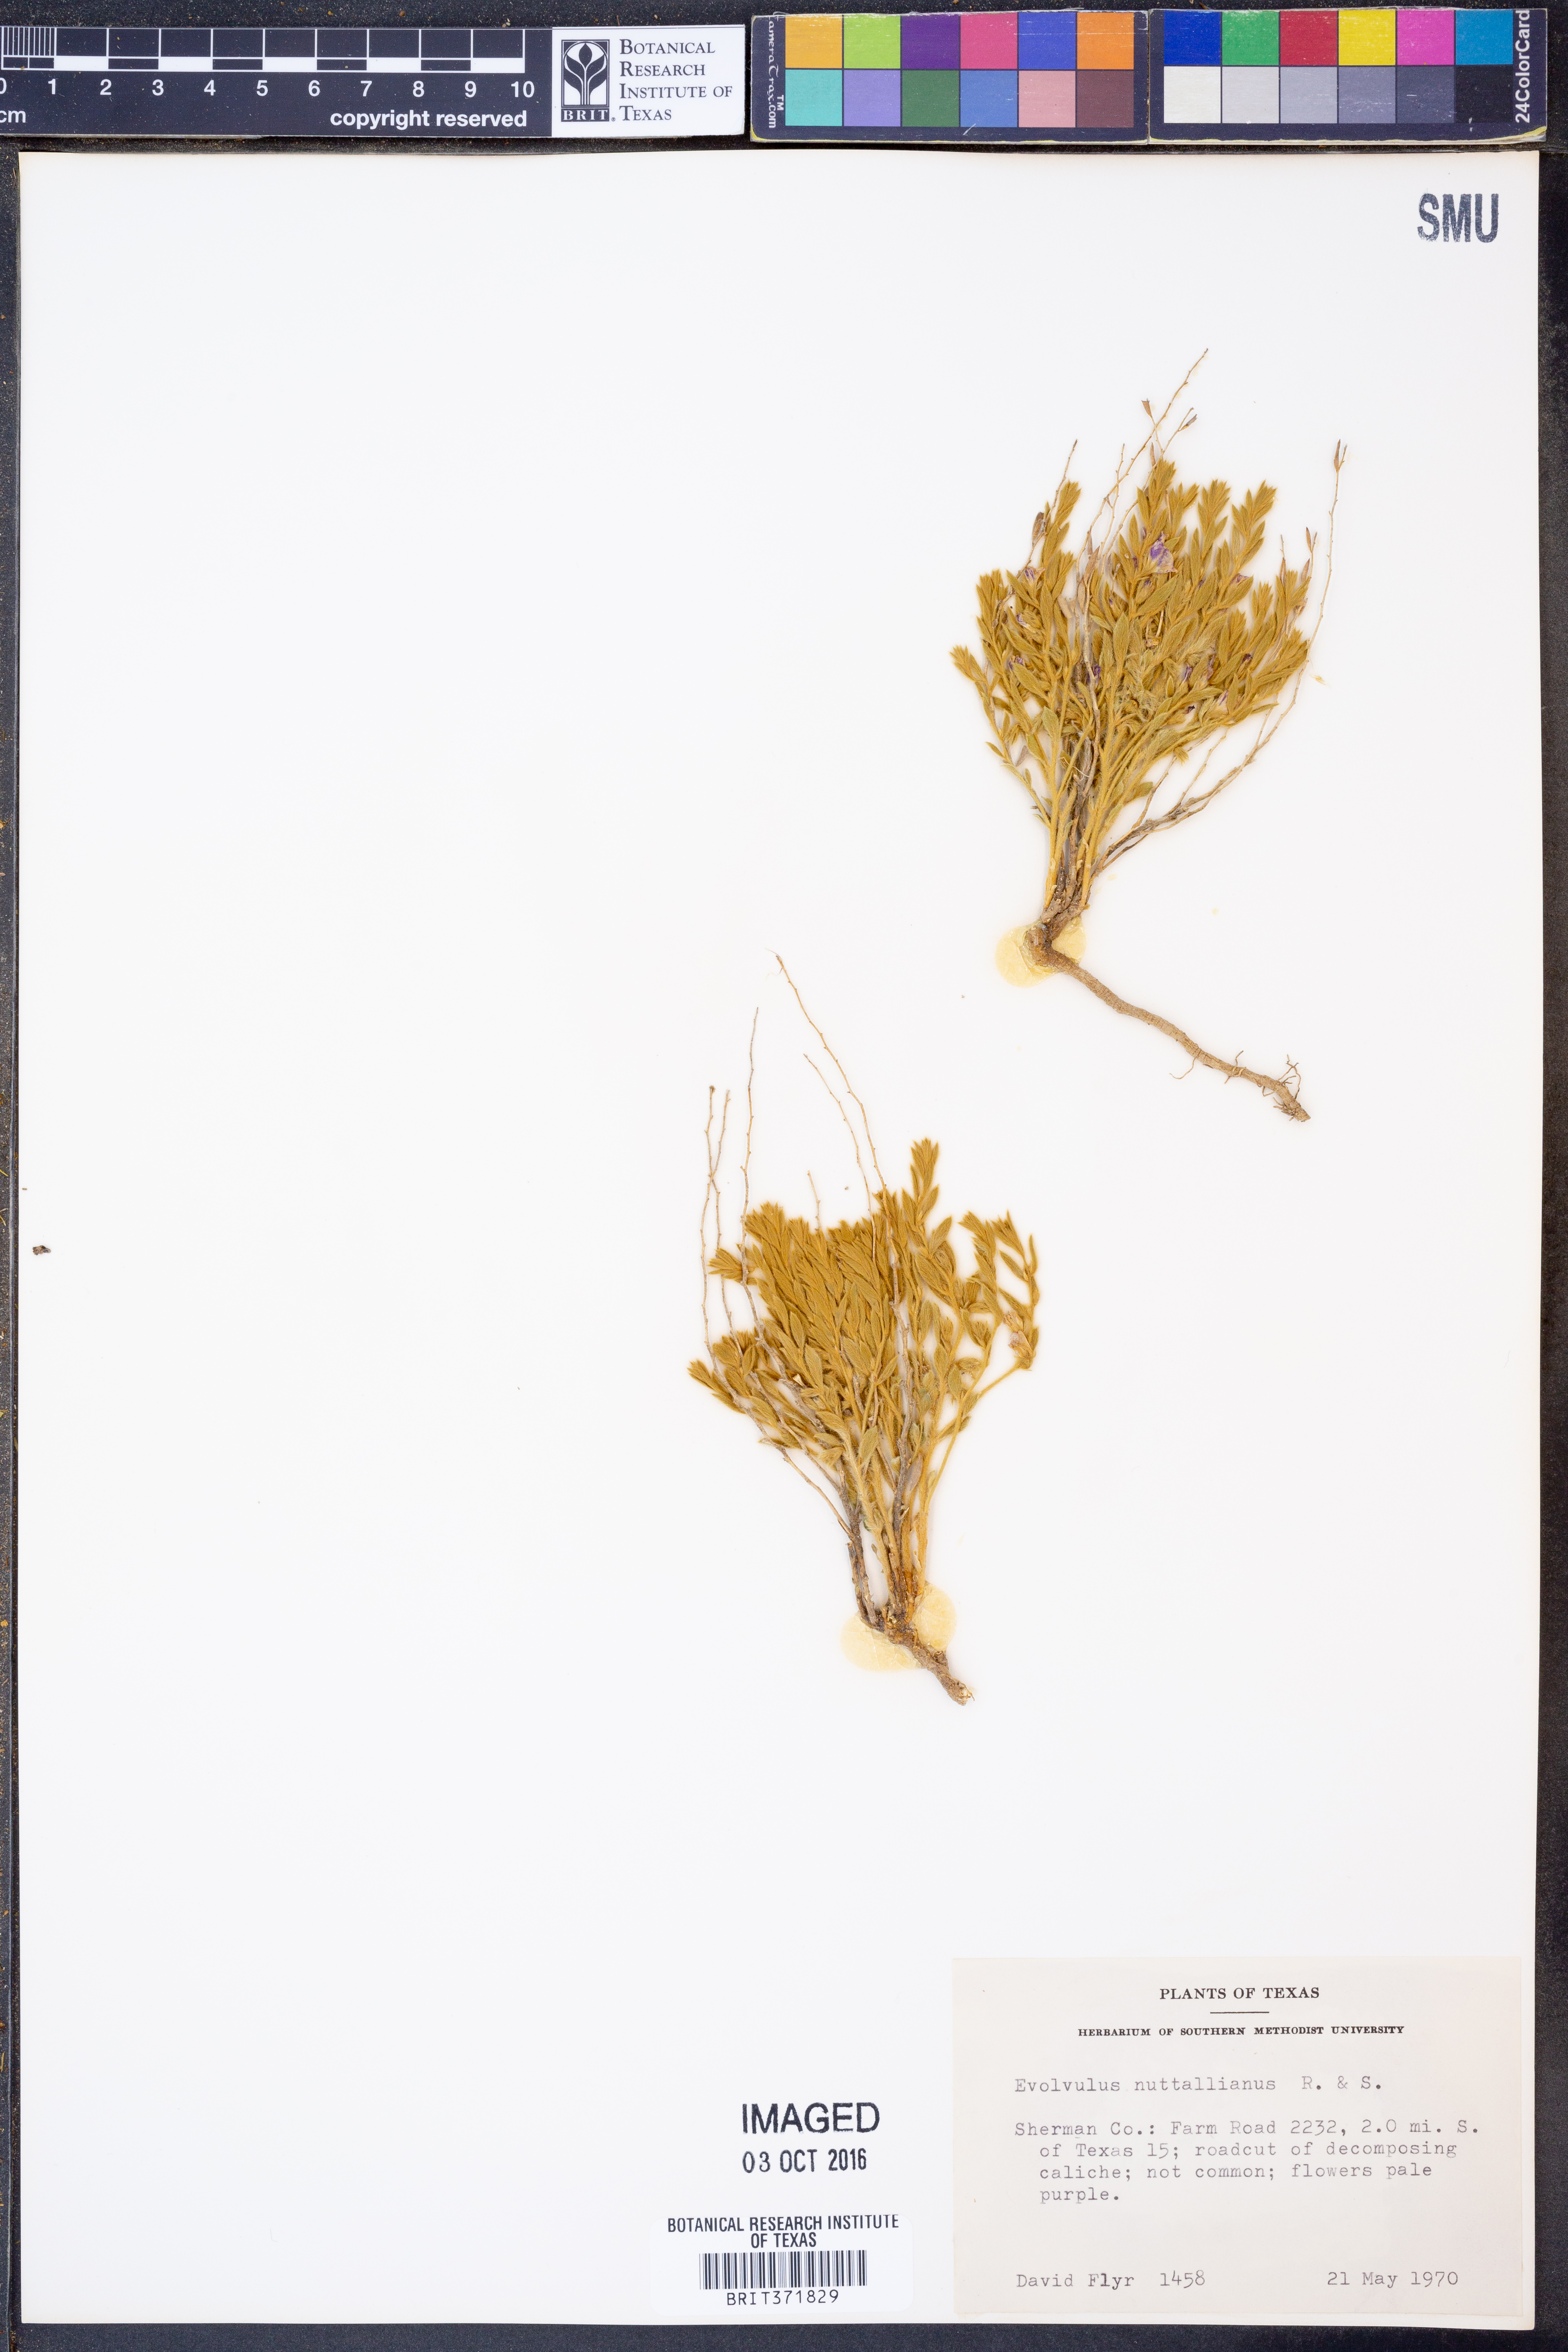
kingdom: Plantae
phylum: Tracheophyta
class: Magnoliopsida
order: Solanales
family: Convolvulaceae
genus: Evolvulus
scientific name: Evolvulus nuttallianus
